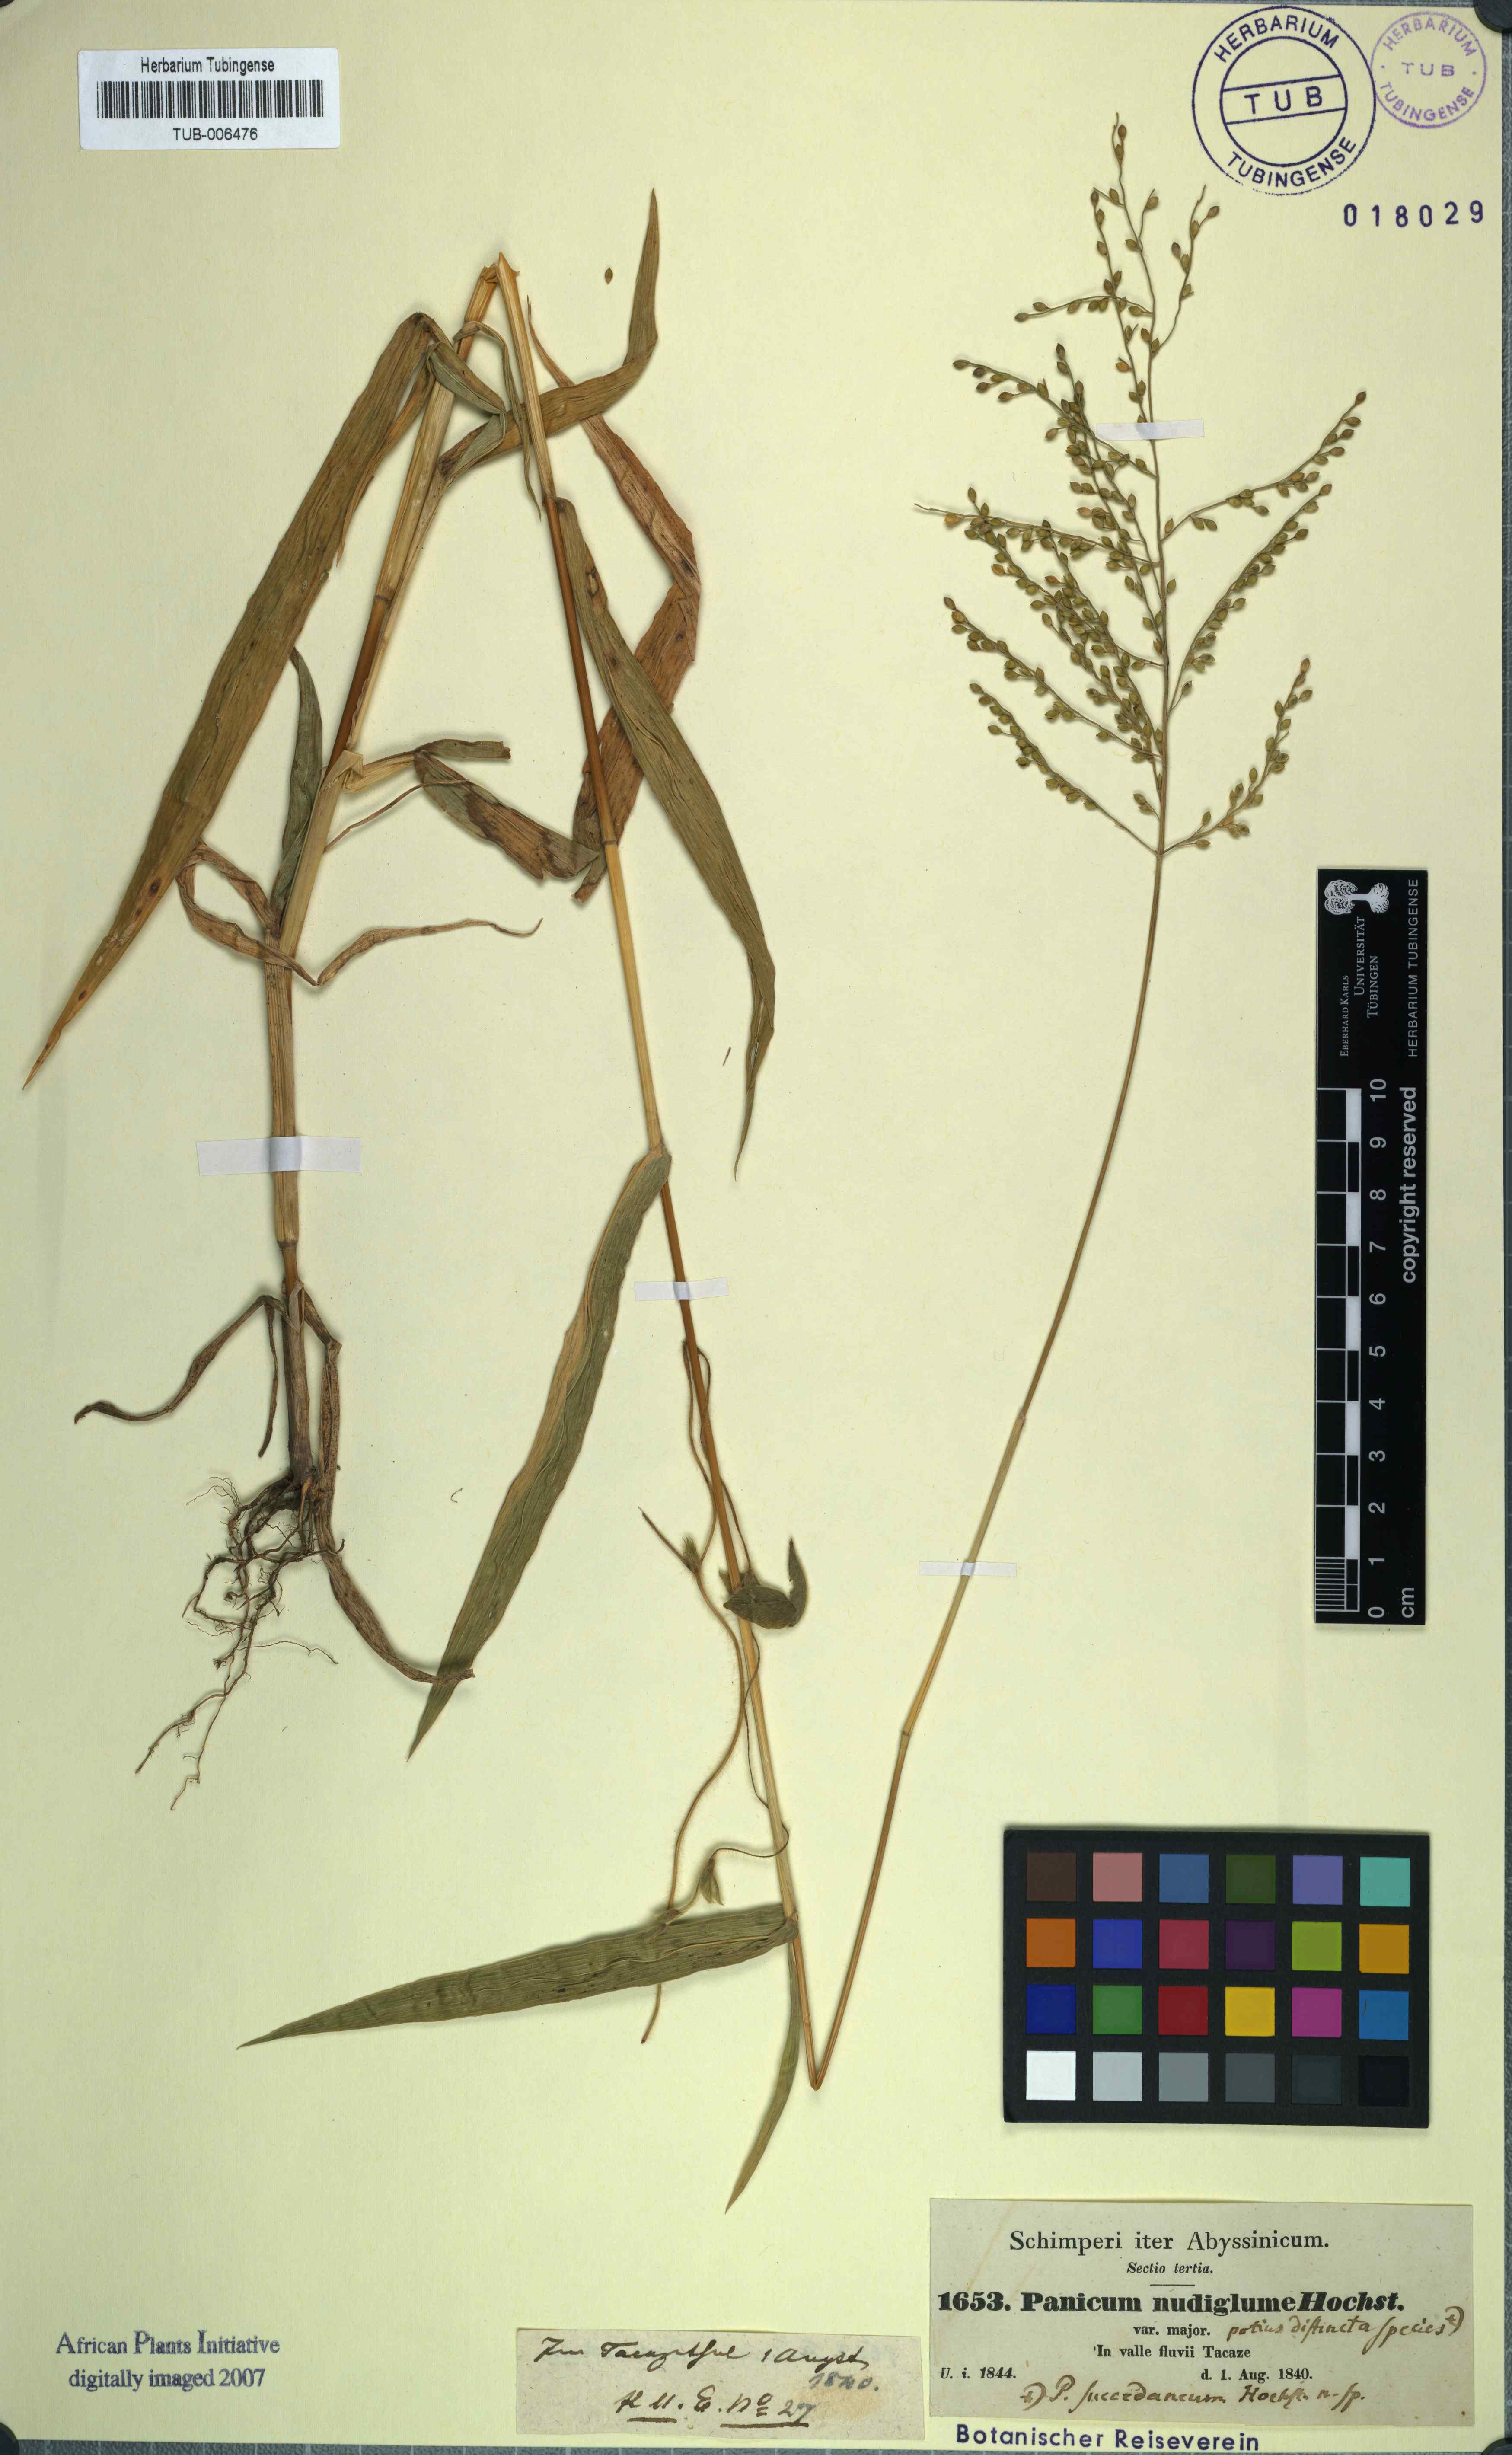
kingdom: Plantae
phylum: Tracheophyta
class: Liliopsida
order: Poales
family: Poaceae
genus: Urochloa
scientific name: Urochloa ramosa
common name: Browntop millet
